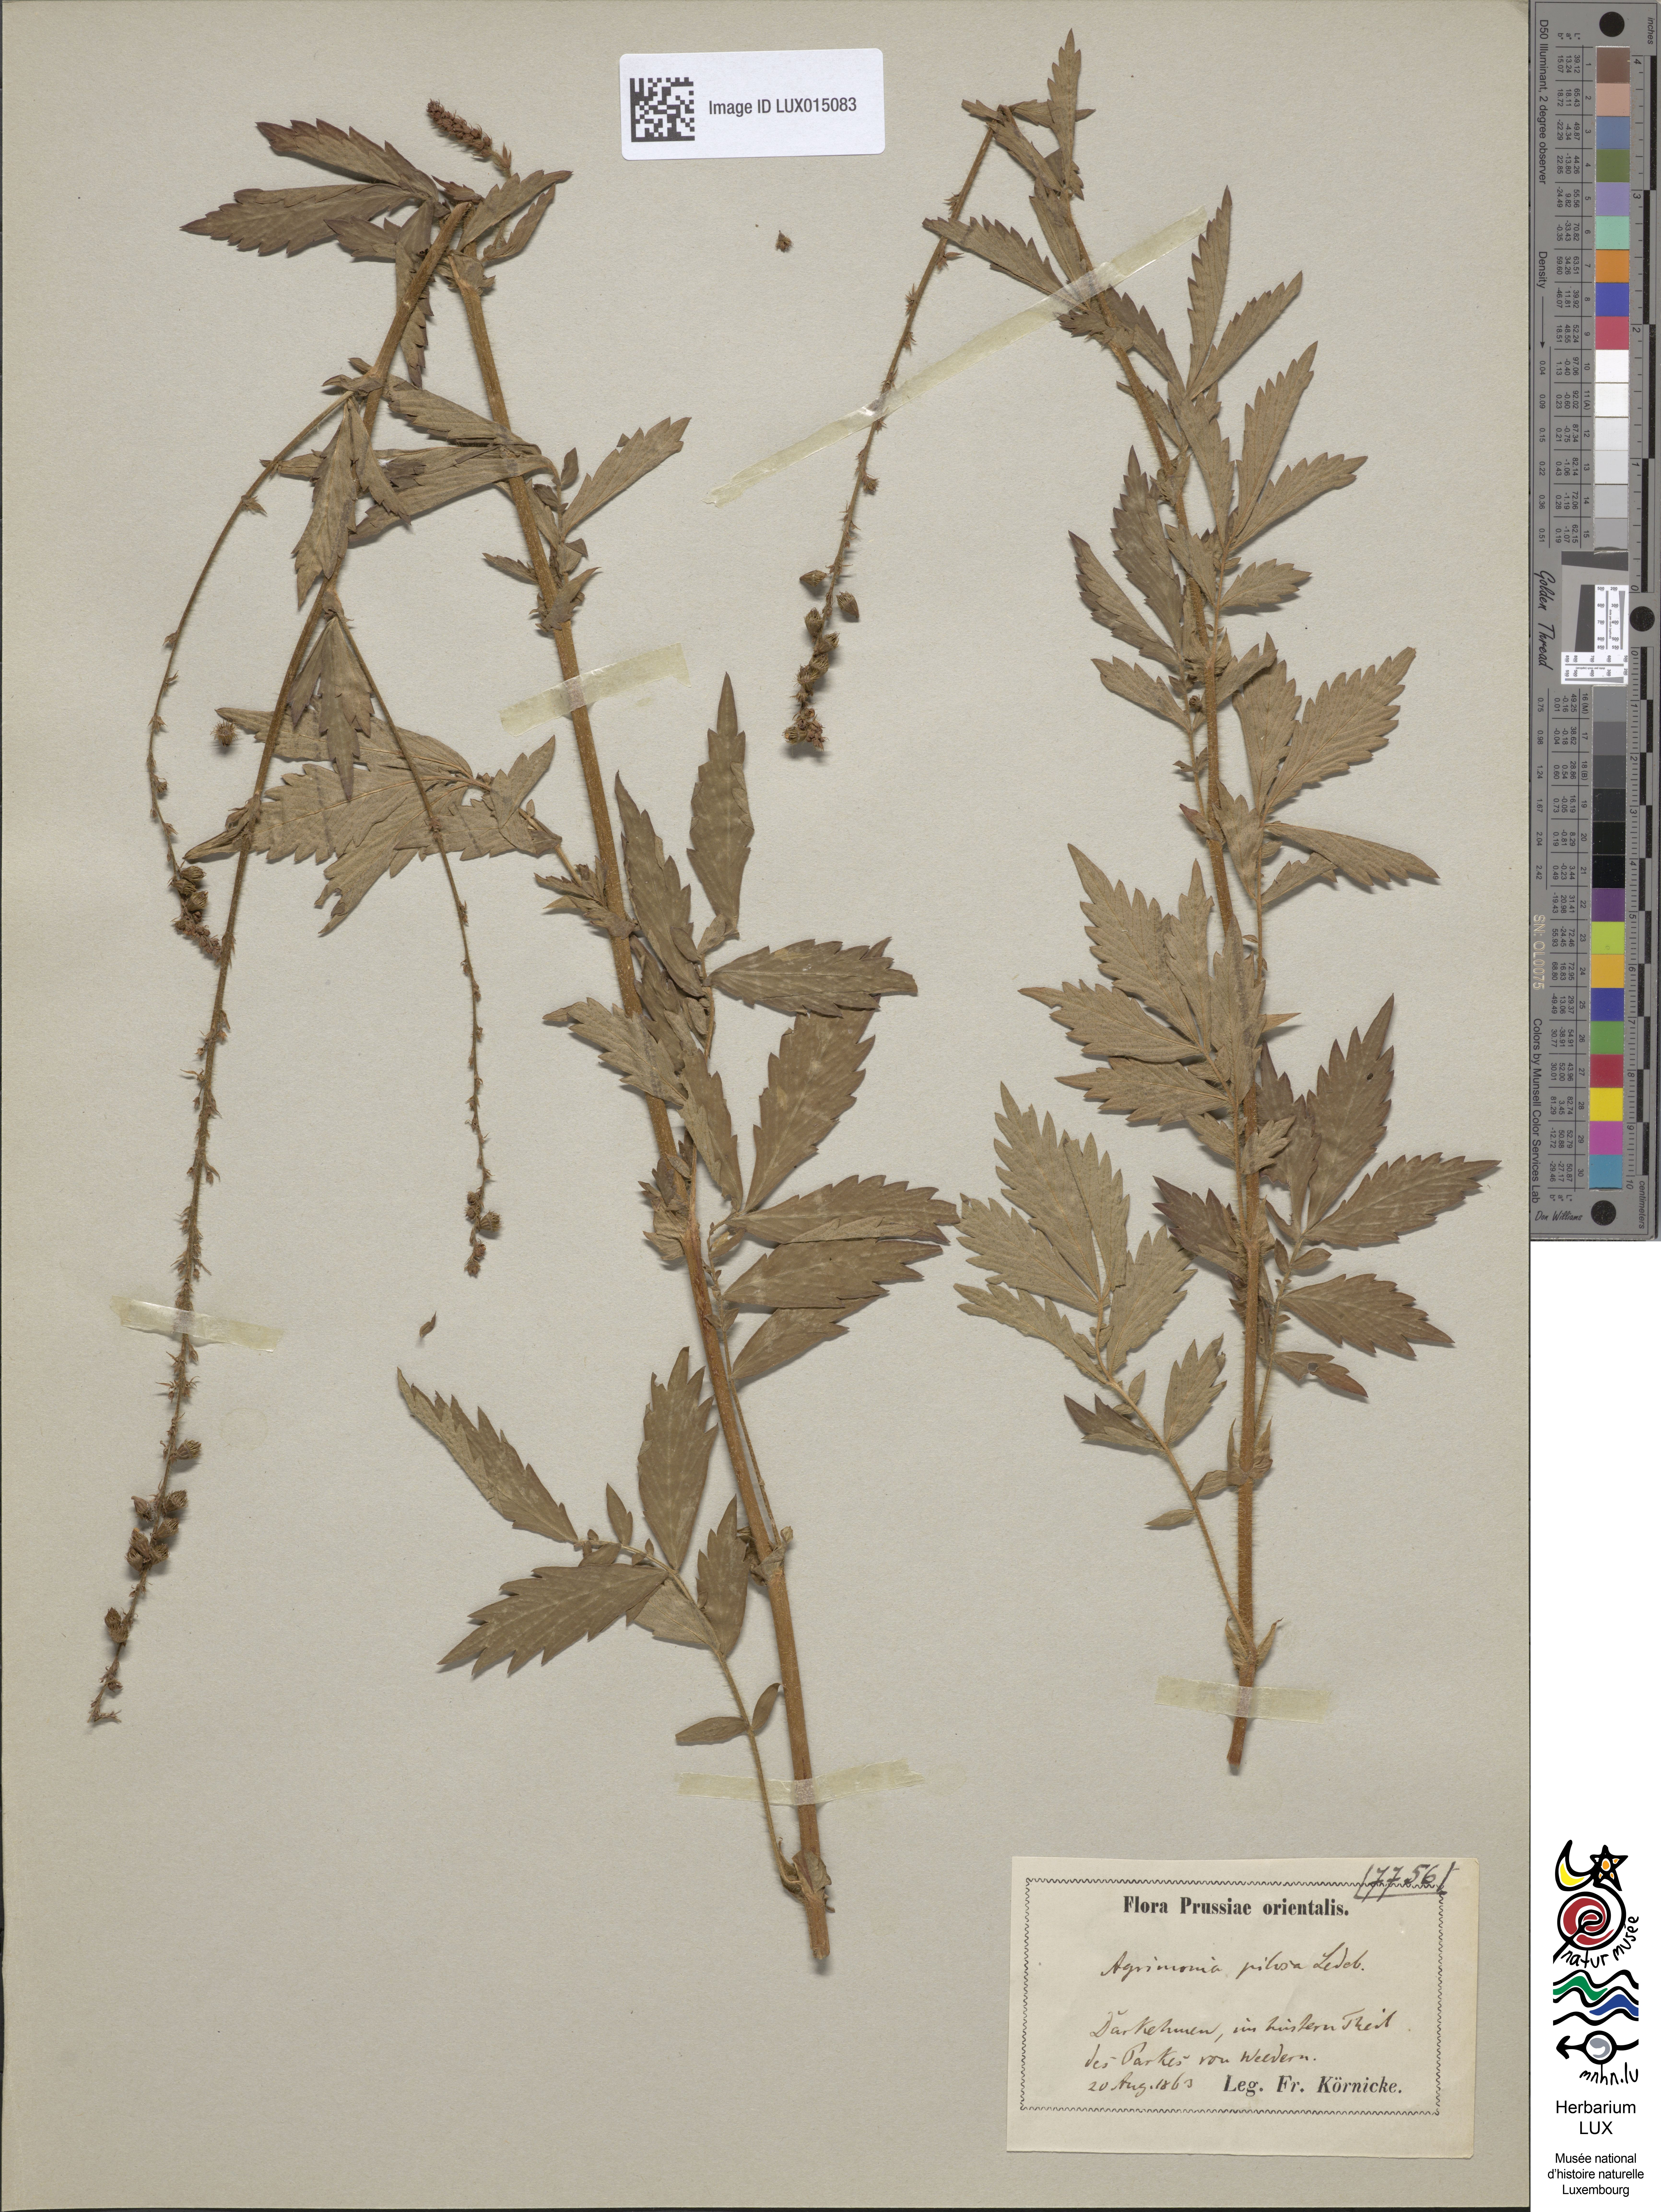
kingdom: Plantae
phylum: Tracheophyta
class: Magnoliopsida
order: Rosales
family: Rosaceae
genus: Agrimonia
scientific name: Agrimonia pilosa
